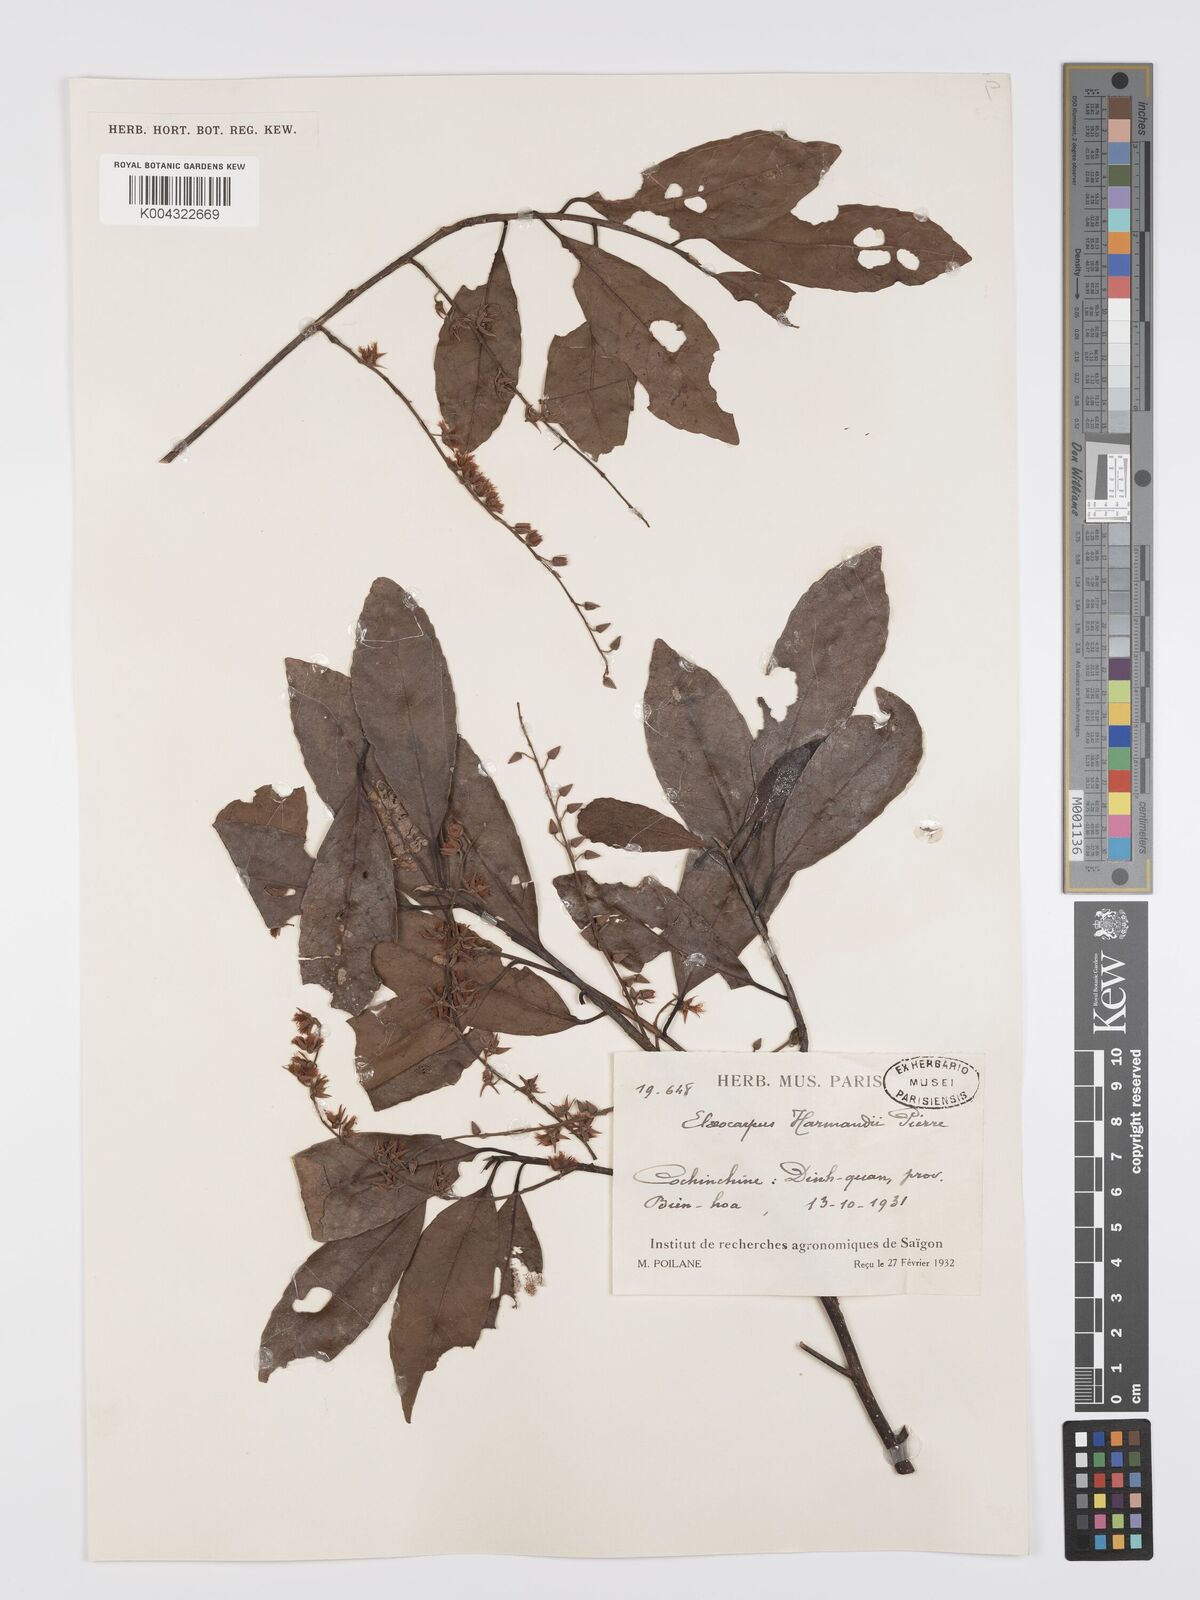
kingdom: Plantae
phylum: Tracheophyta
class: Magnoliopsida
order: Oxalidales
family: Elaeocarpaceae
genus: Elaeocarpus
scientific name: Elaeocarpus harmandii
